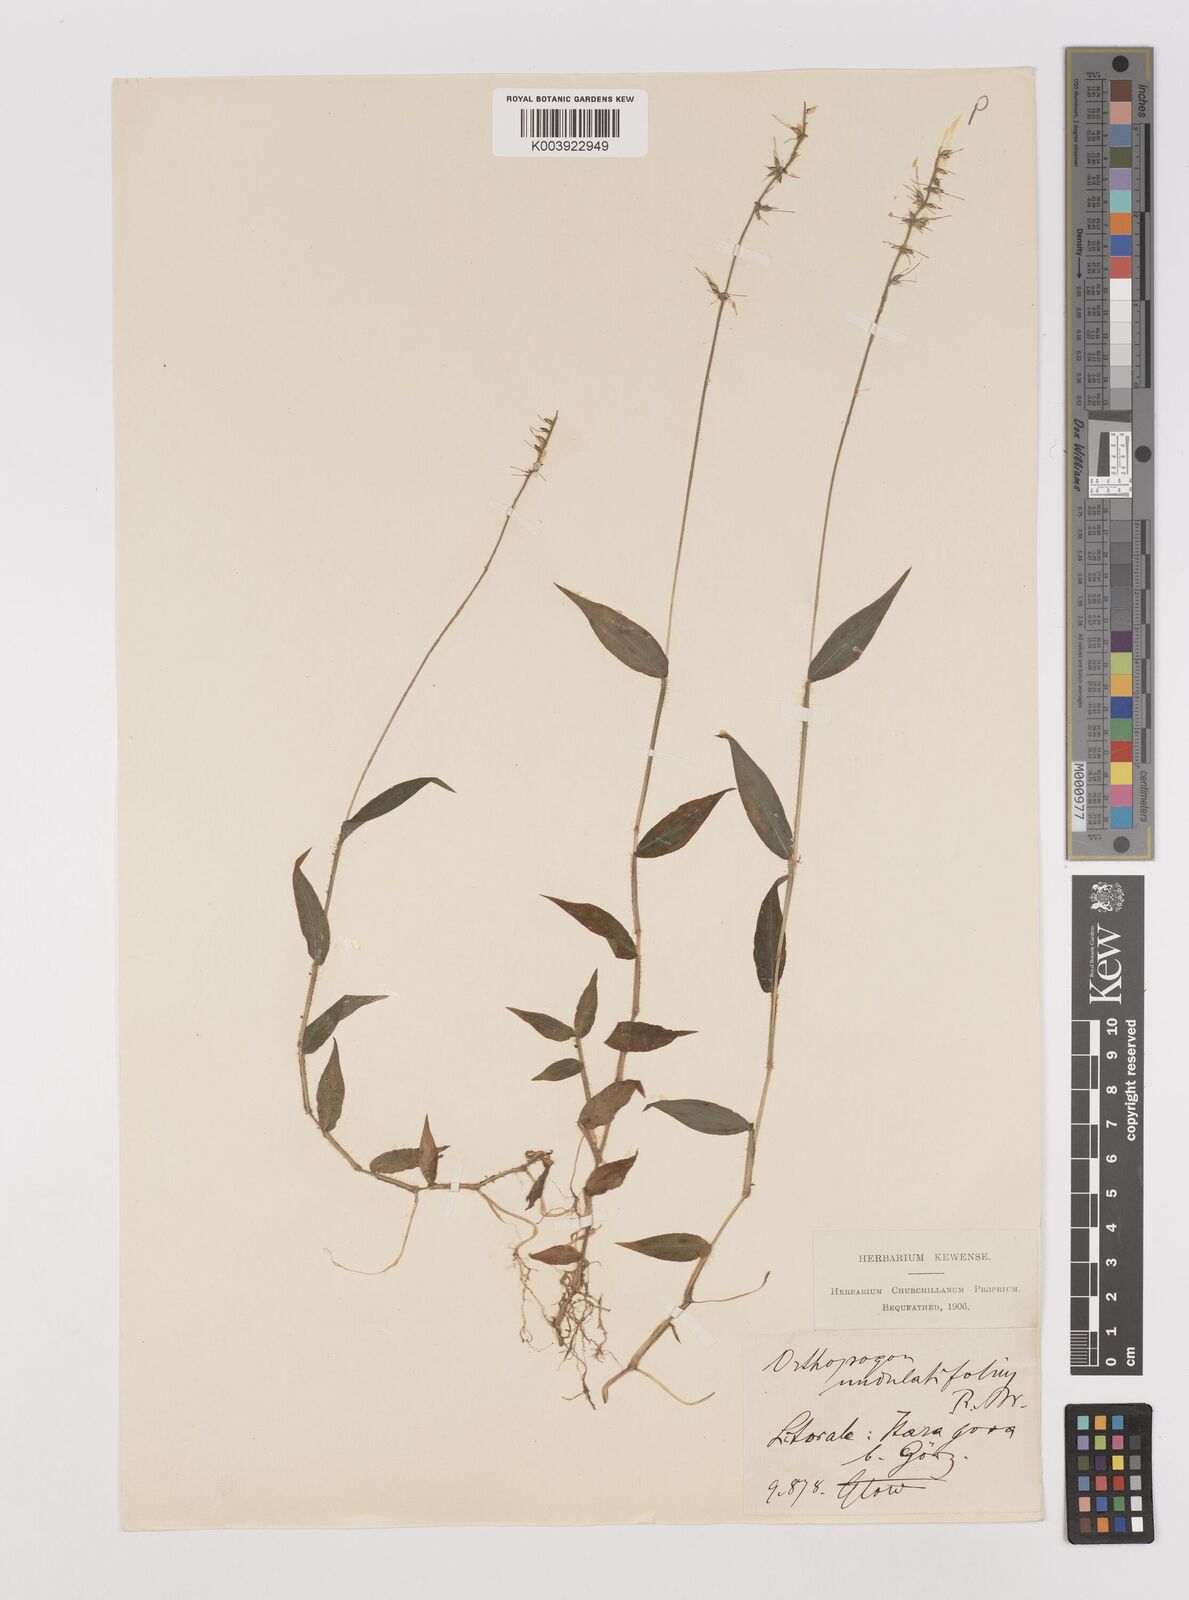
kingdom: Plantae
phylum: Tracheophyta
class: Liliopsida
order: Poales
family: Poaceae
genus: Oplismenus
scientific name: Oplismenus undulatifolius
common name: Wavyleaf basketgrass
